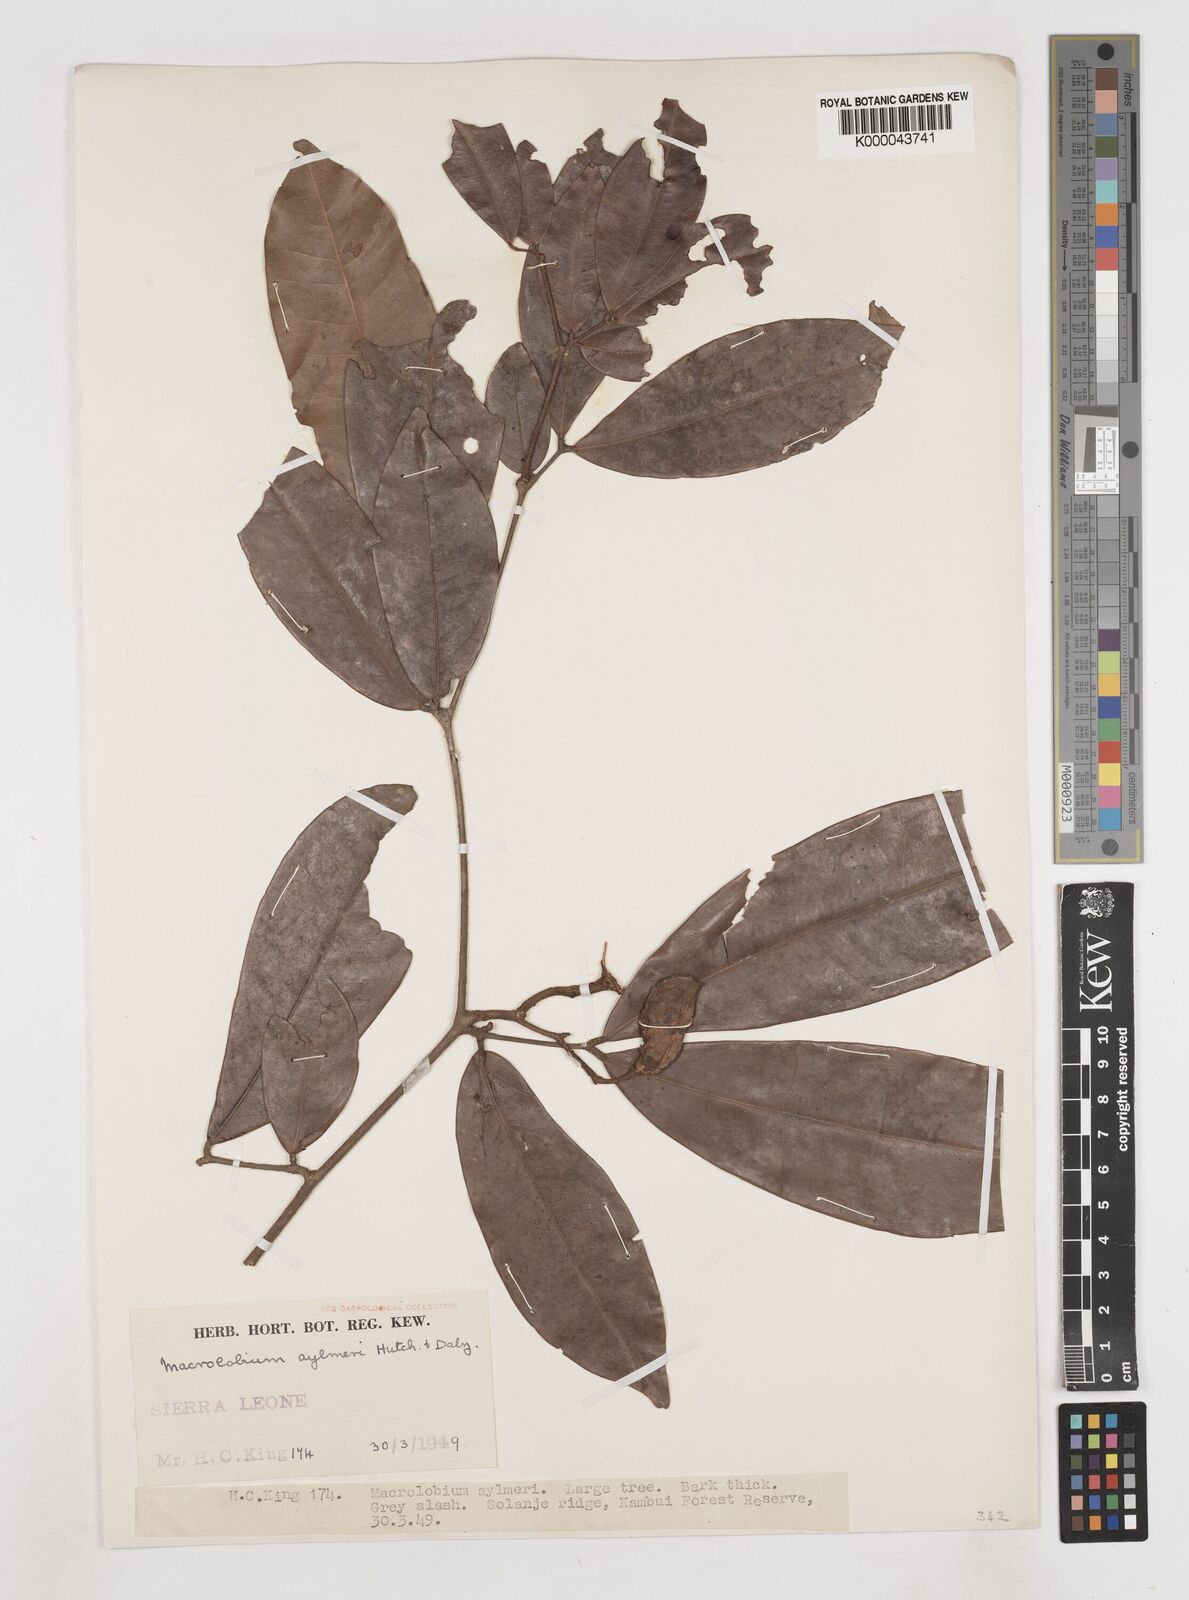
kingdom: Plantae
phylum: Tracheophyta
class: Magnoliopsida
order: Fabales
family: Fabaceae
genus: Gilbertiodendron
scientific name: Gilbertiodendron
